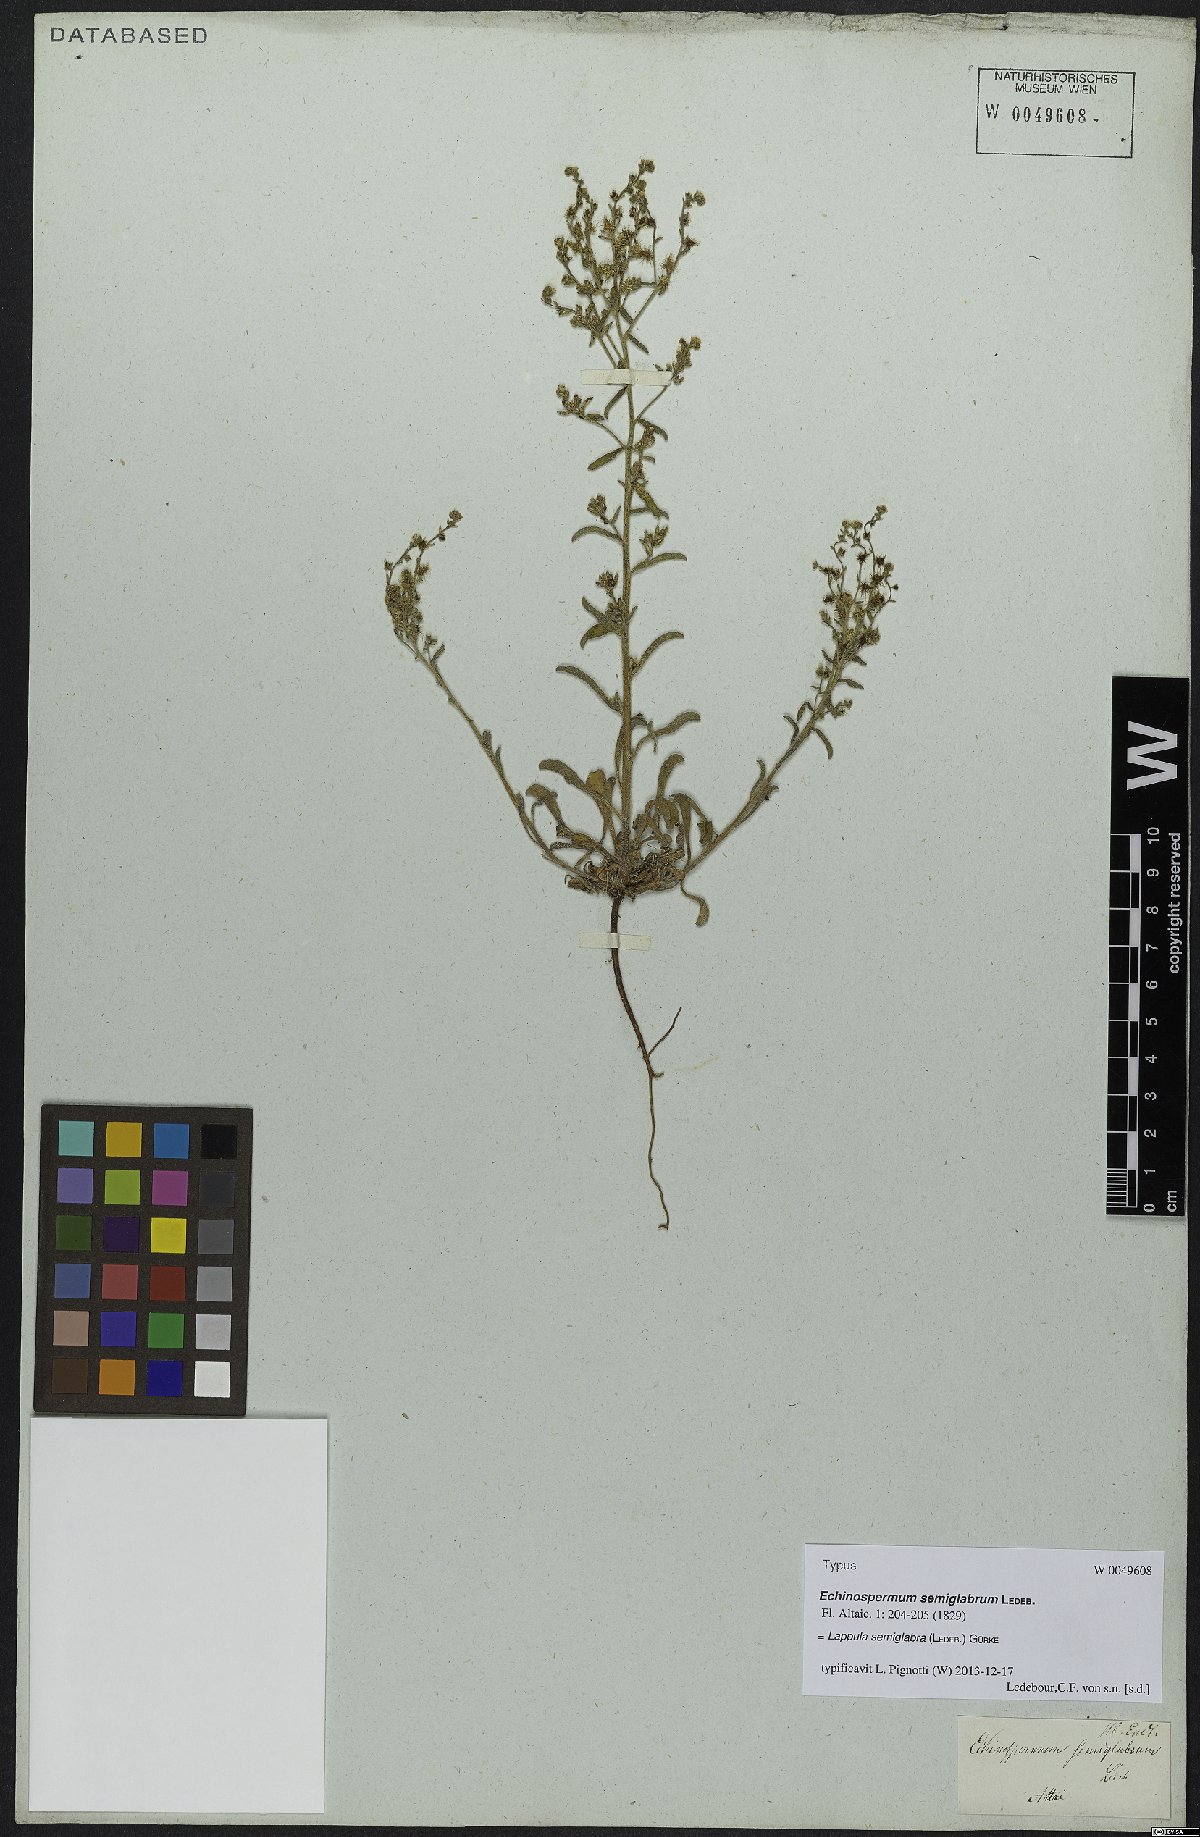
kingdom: Plantae
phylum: Tracheophyta
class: Magnoliopsida
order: Boraginales
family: Boraginaceae
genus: Lappula
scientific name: Lappula patula
